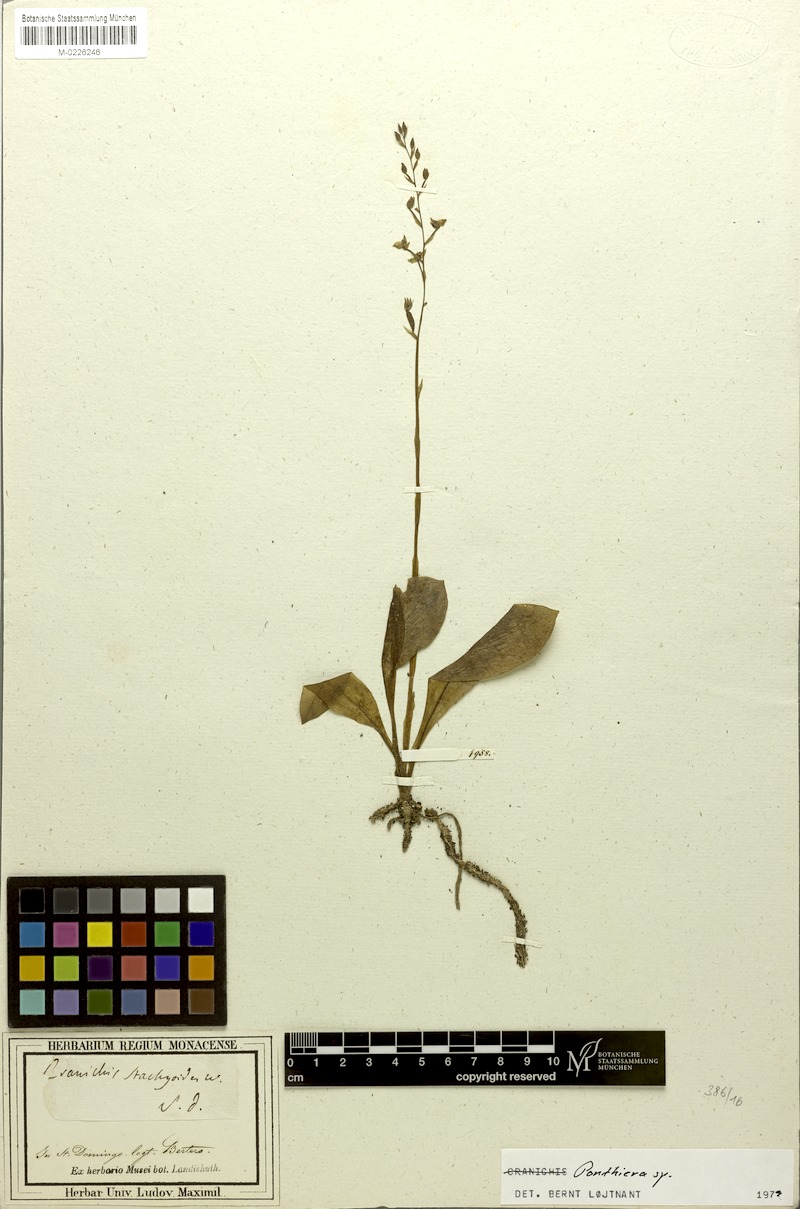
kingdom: Plantae
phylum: Tracheophyta
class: Liliopsida
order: Asparagales
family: Orchidaceae
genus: Ponthieva
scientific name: Ponthieva
